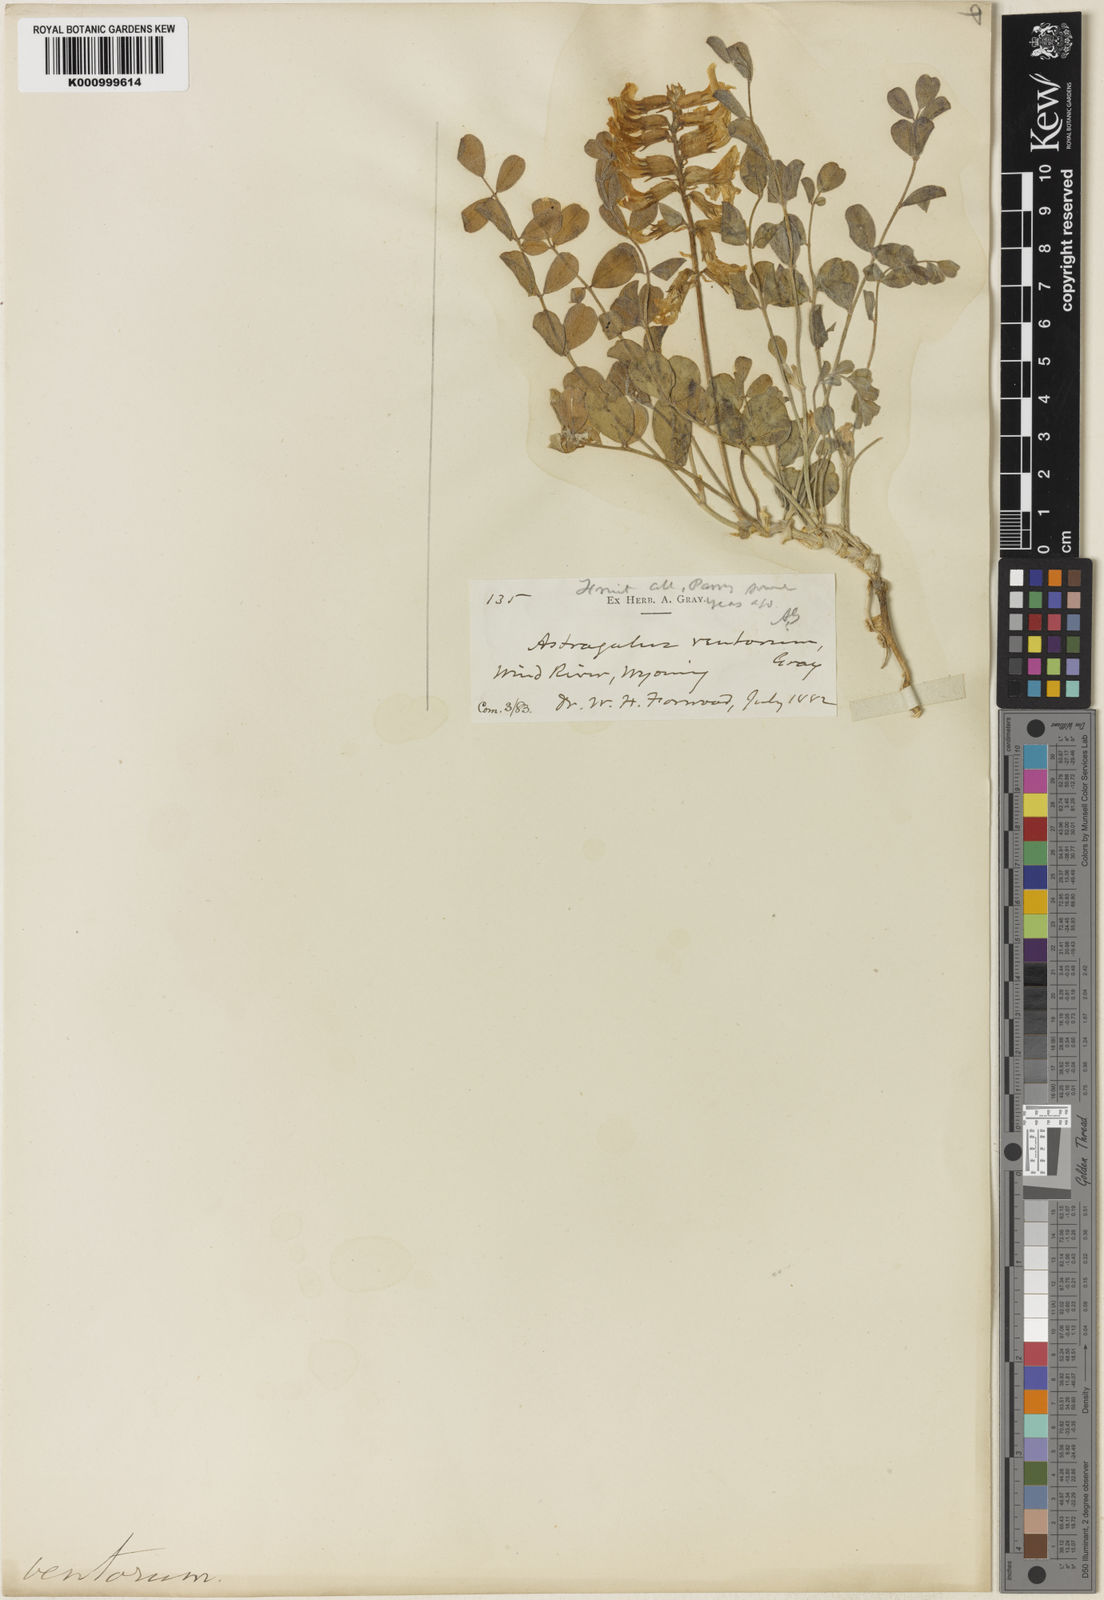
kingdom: Plantae
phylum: Tracheophyta
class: Magnoliopsida
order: Fabales
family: Fabaceae
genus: Astragalus
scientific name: Astragalus oreganus
